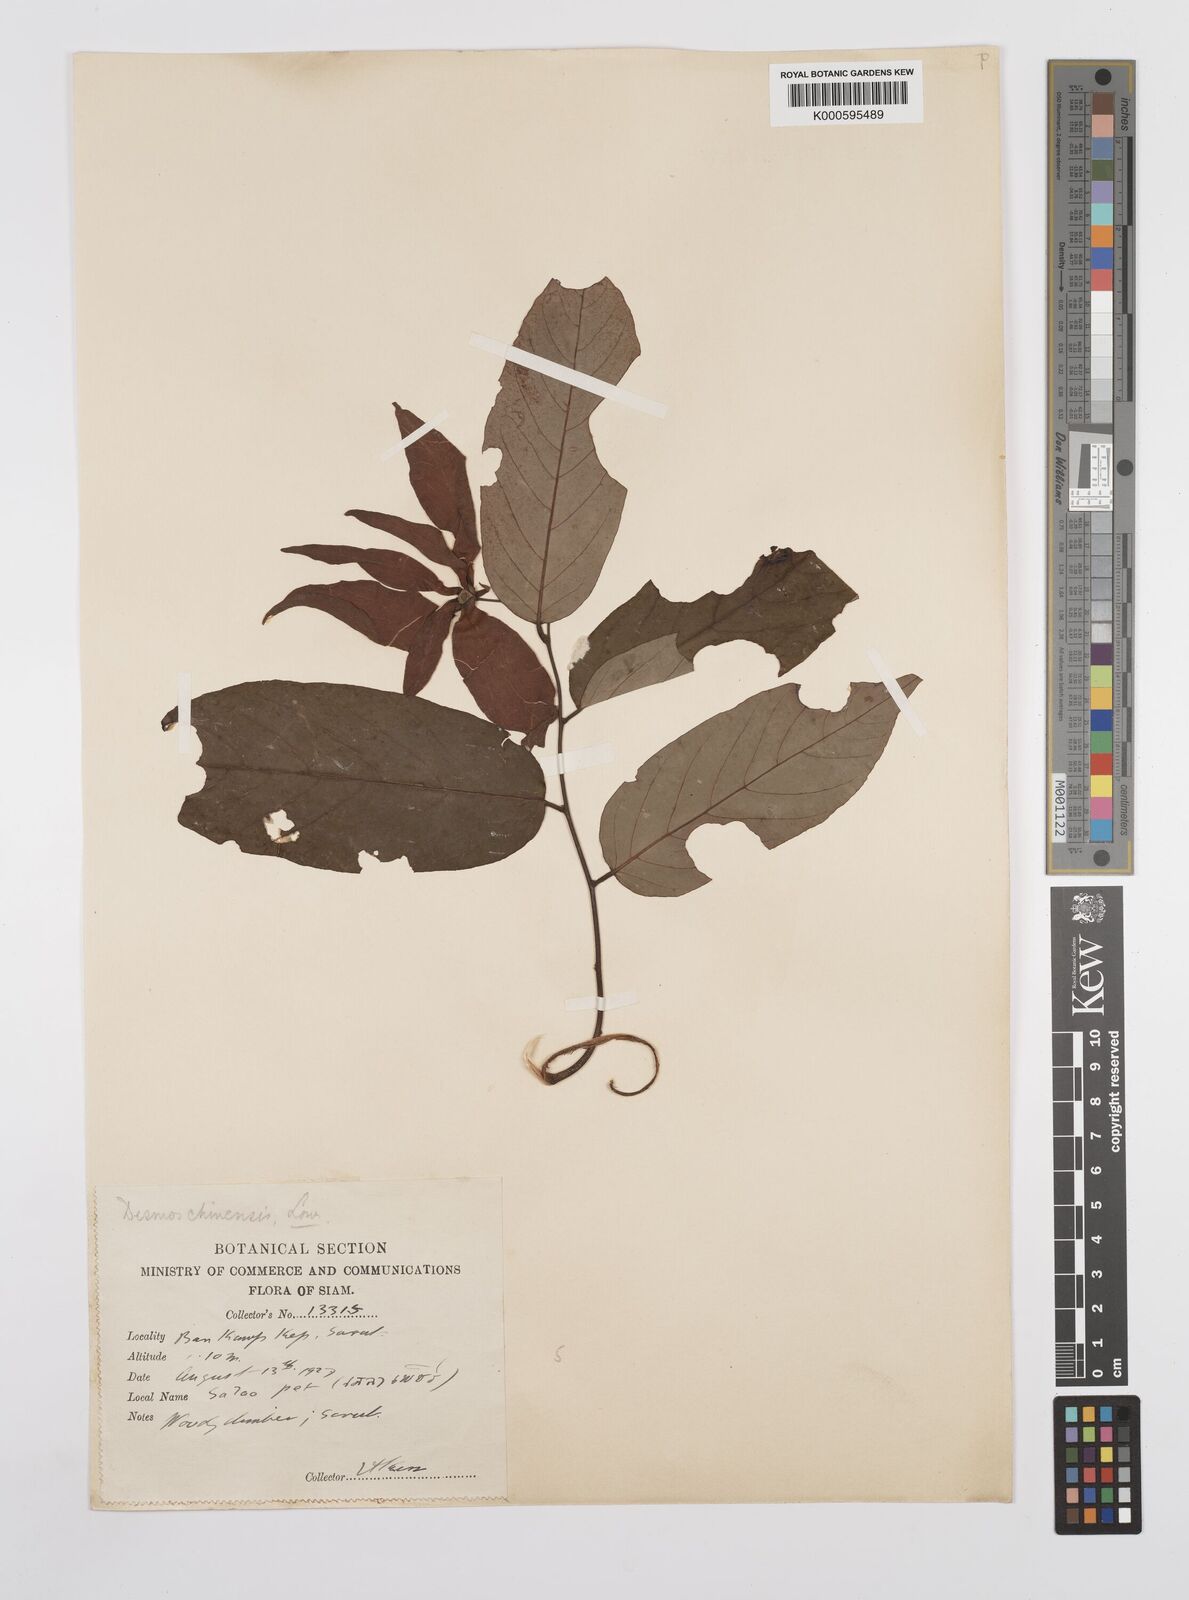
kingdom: Plantae
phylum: Tracheophyta
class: Magnoliopsida
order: Magnoliales
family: Annonaceae
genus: Desmos
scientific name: Desmos chinensis
